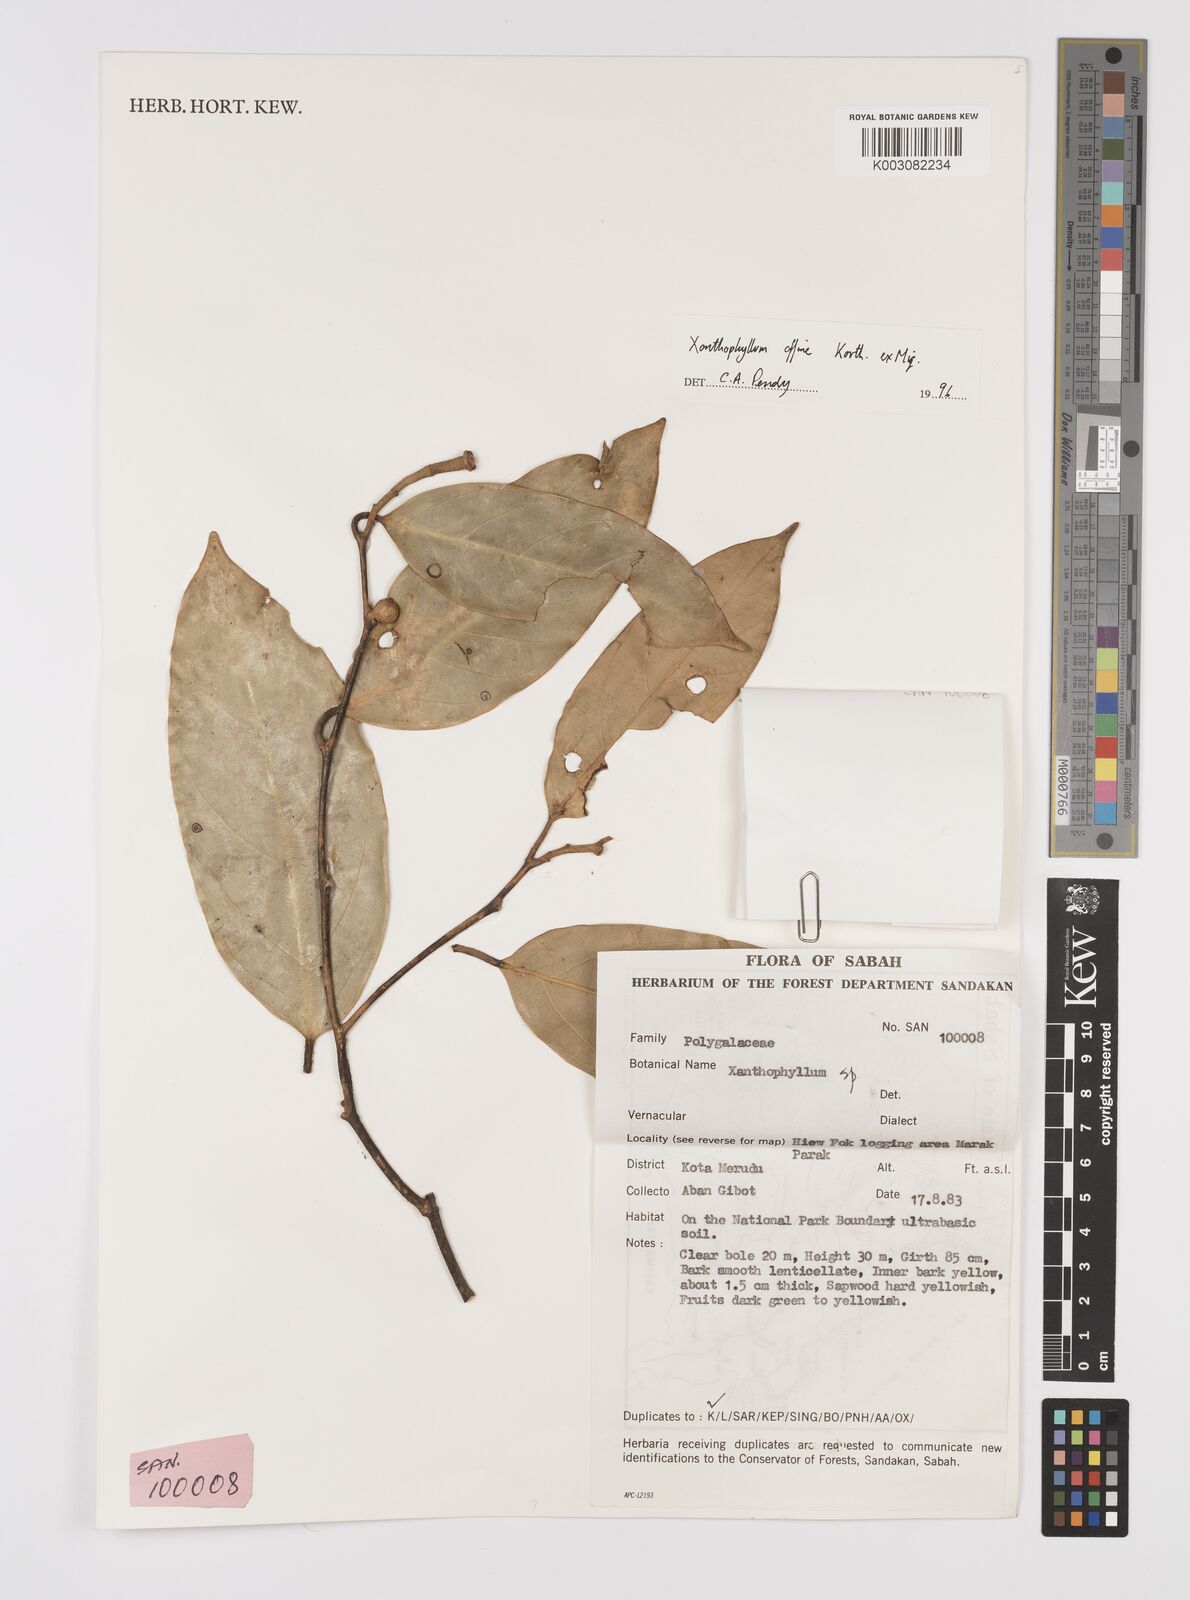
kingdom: Plantae
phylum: Tracheophyta
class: Magnoliopsida
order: Fabales
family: Polygalaceae
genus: Xanthophyllum
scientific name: Xanthophyllum flavescens
